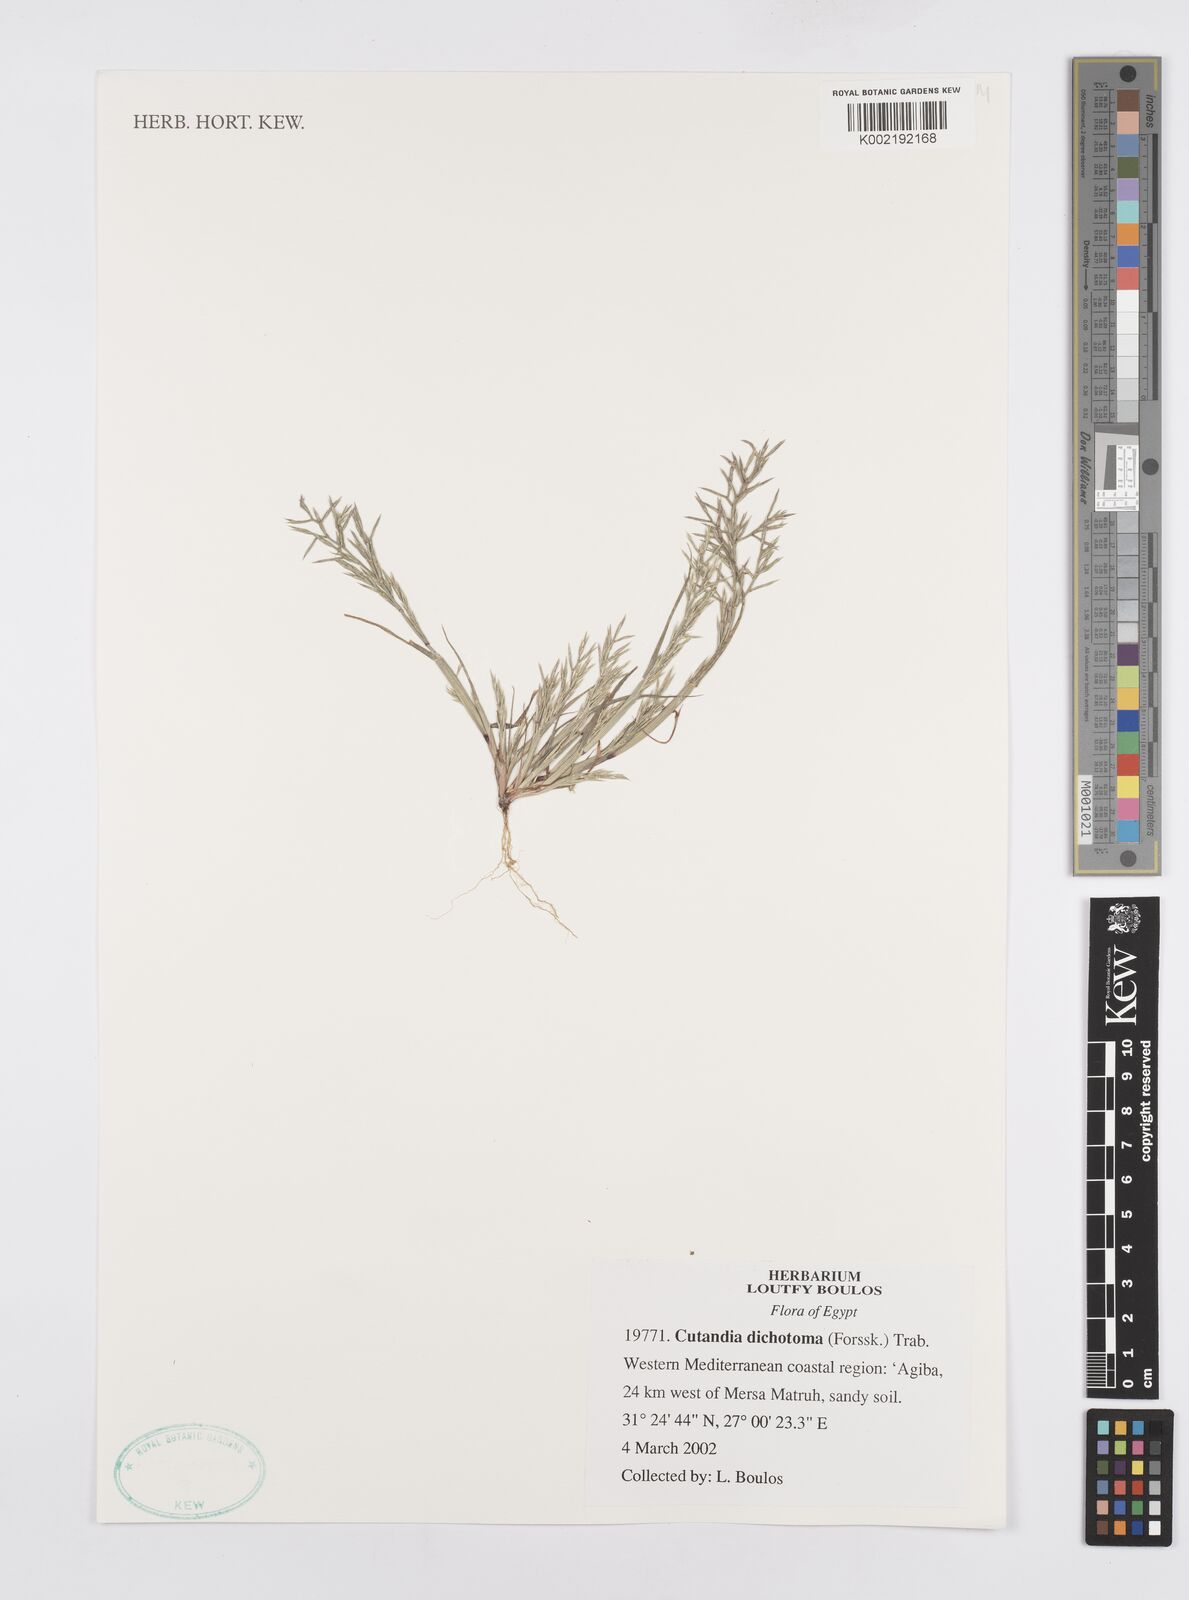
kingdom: Plantae
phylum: Tracheophyta
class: Liliopsida
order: Poales
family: Poaceae
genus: Cutandia
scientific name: Cutandia dichotoma
